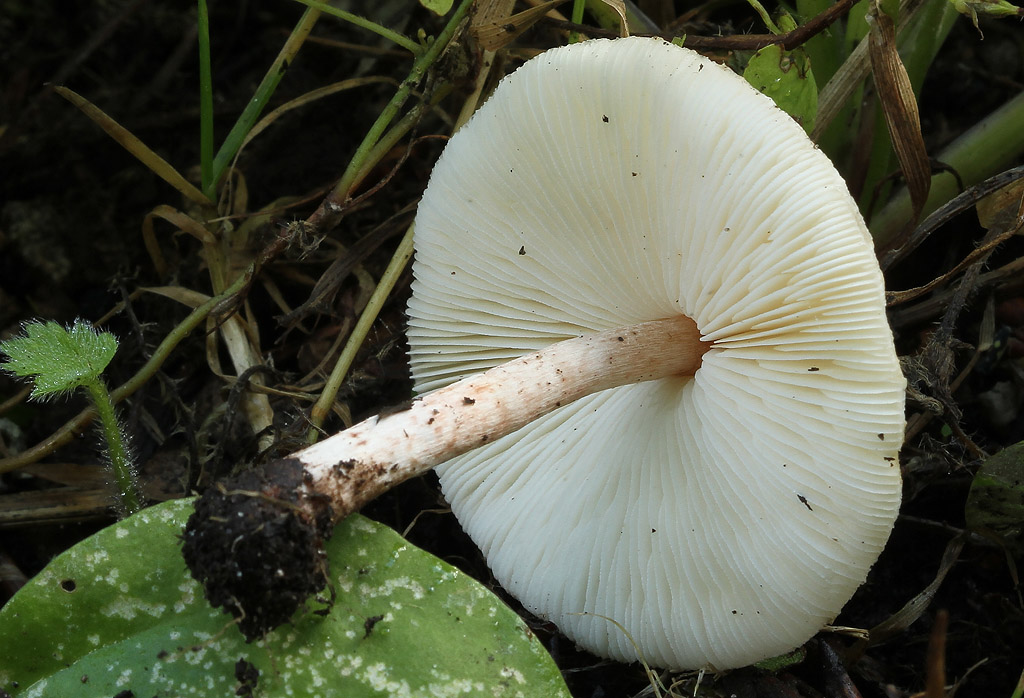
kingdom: Fungi
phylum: Basidiomycota
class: Agaricomycetes
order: Agaricales
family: Agaricaceae
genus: Lepiota
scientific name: Lepiota cristata
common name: stinkende parasolhat
